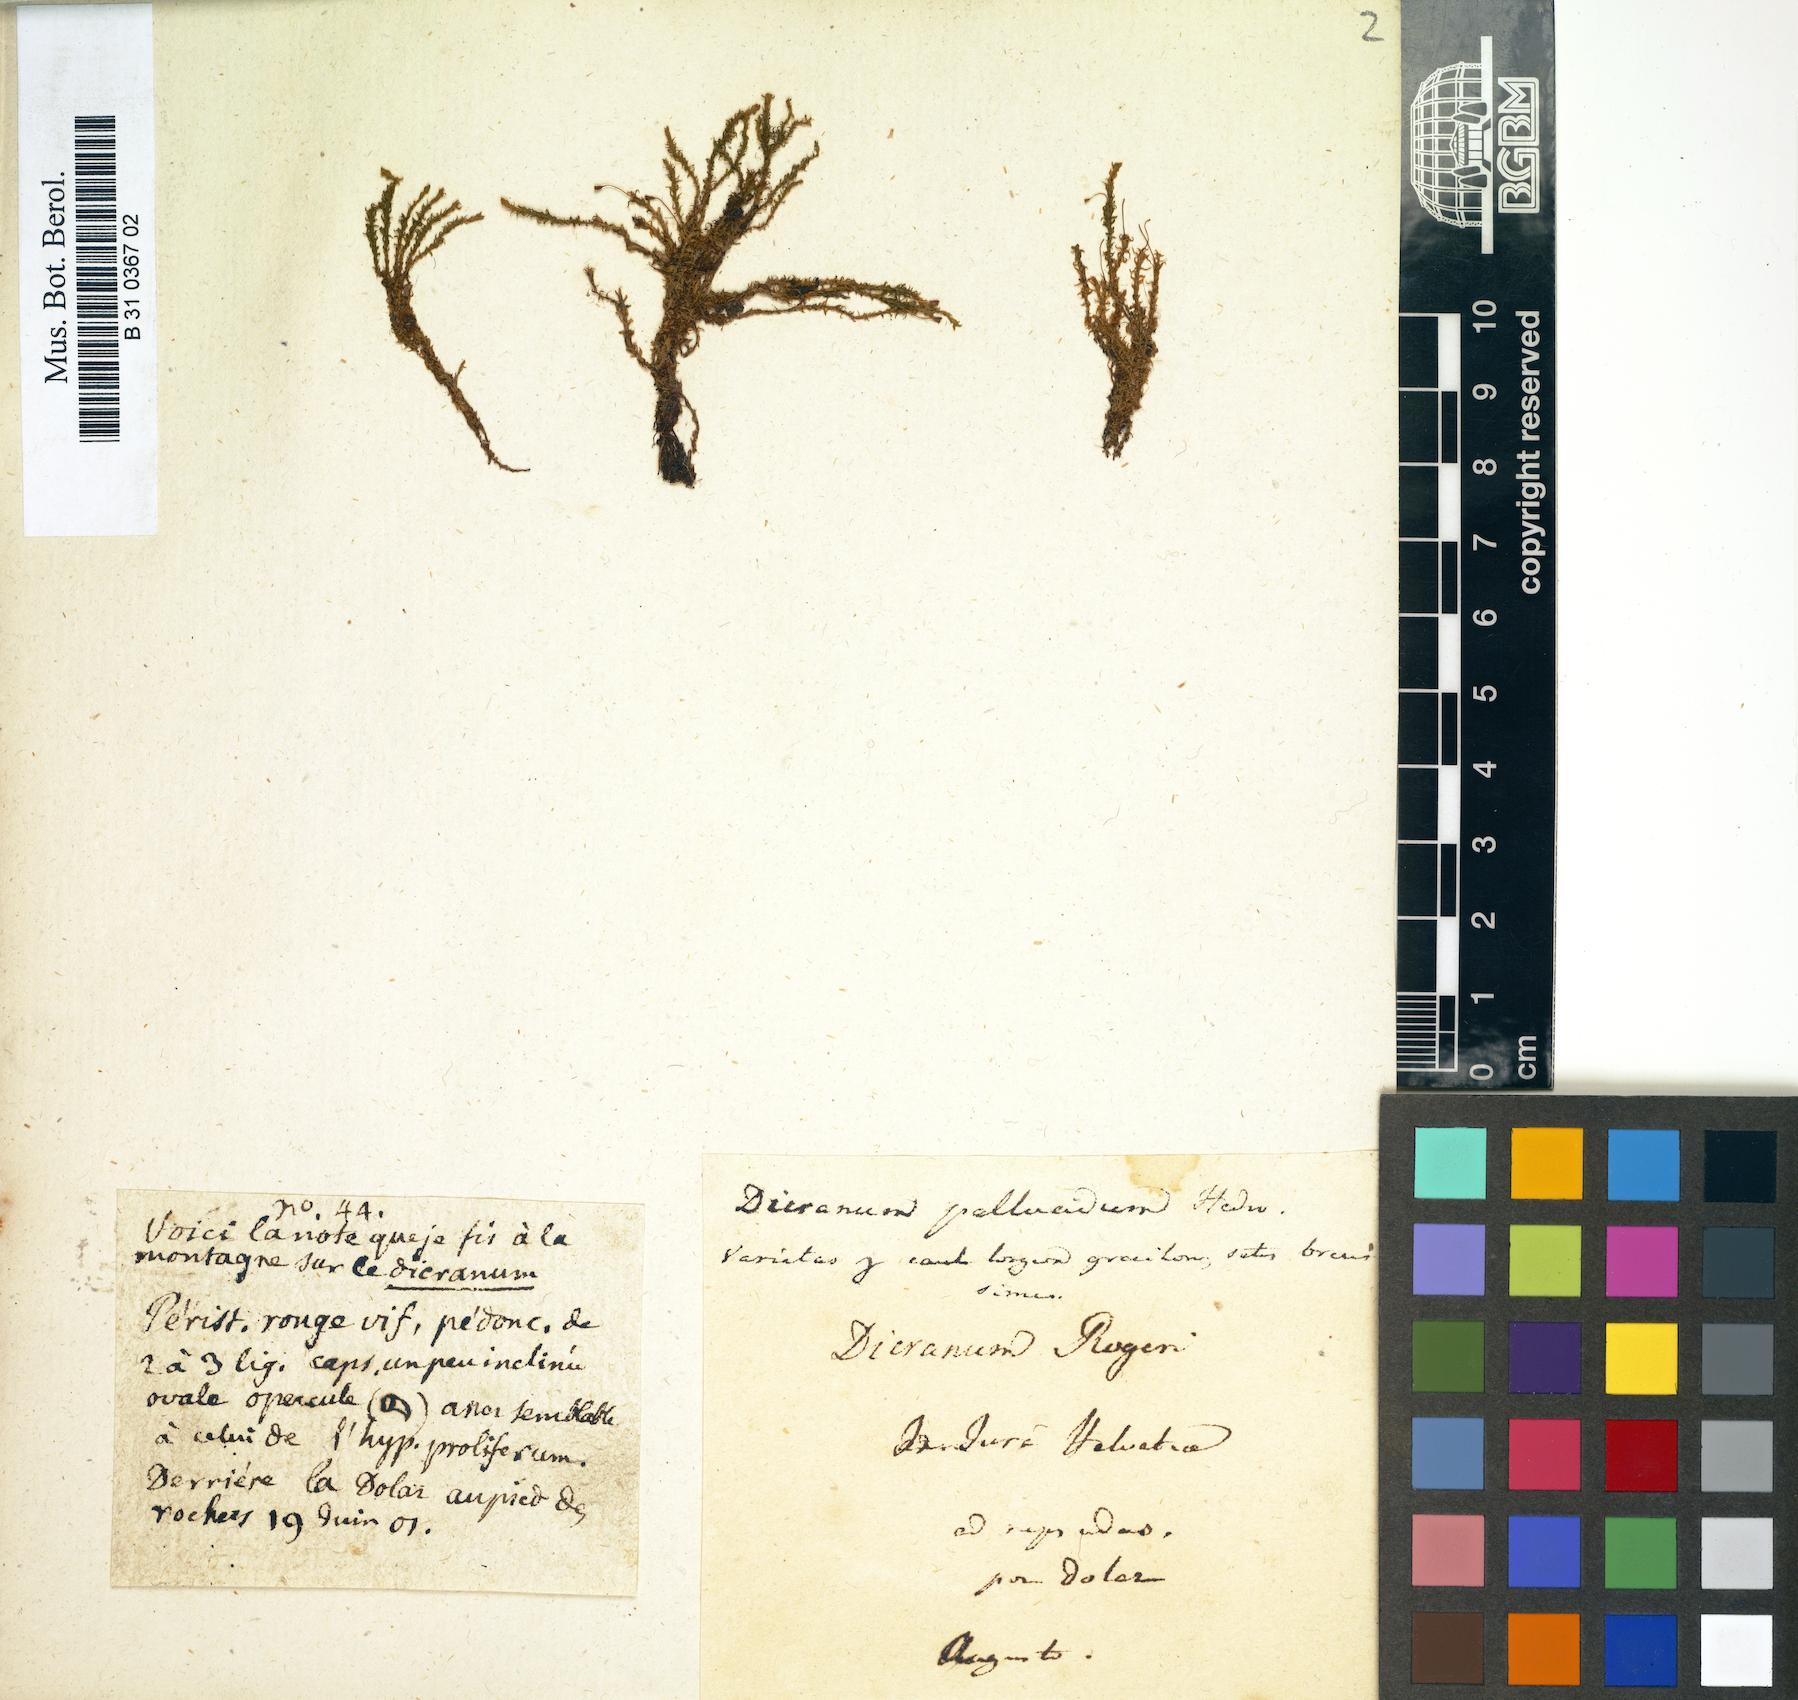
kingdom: Plantae
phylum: Bryophyta
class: Bryopsida
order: Dicranales
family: Aongstroemiaceae
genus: Dichodontium
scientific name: Dichodontium pellucidum
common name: Transparent fork moss
